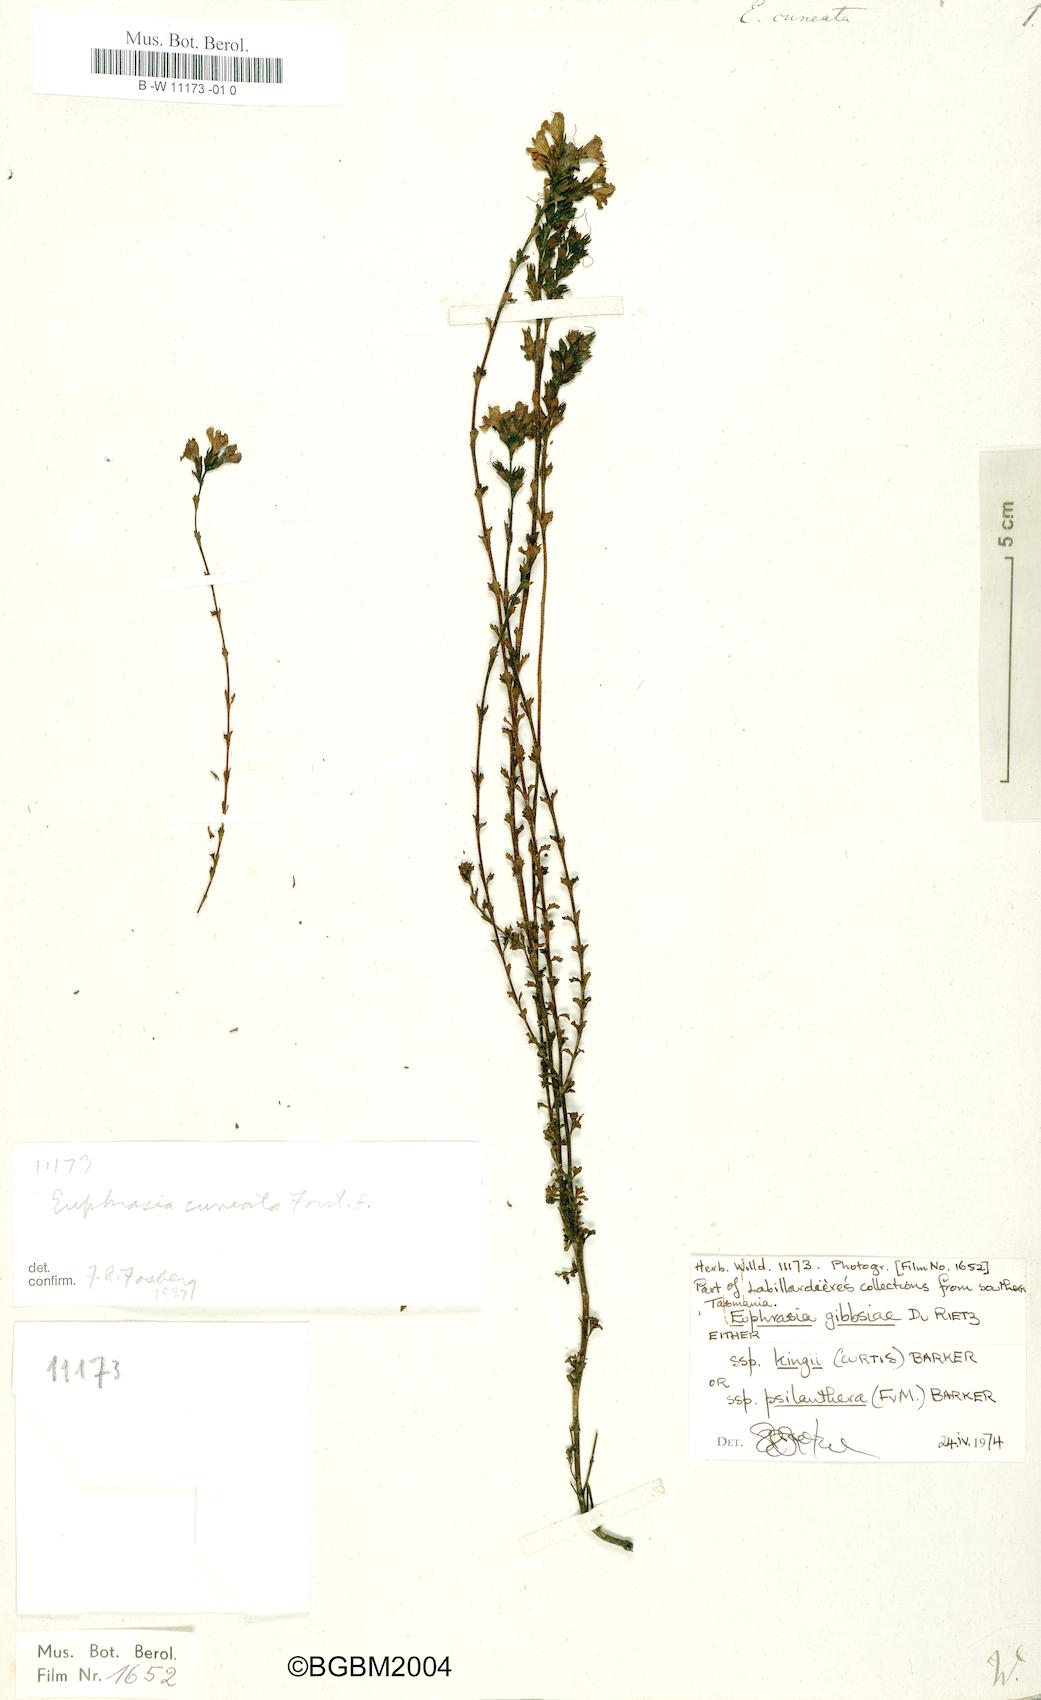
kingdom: Plantae
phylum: Tracheophyta
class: Magnoliopsida
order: Lamiales
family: Orobanchaceae
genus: Euphrasia
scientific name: Euphrasia cuneata
